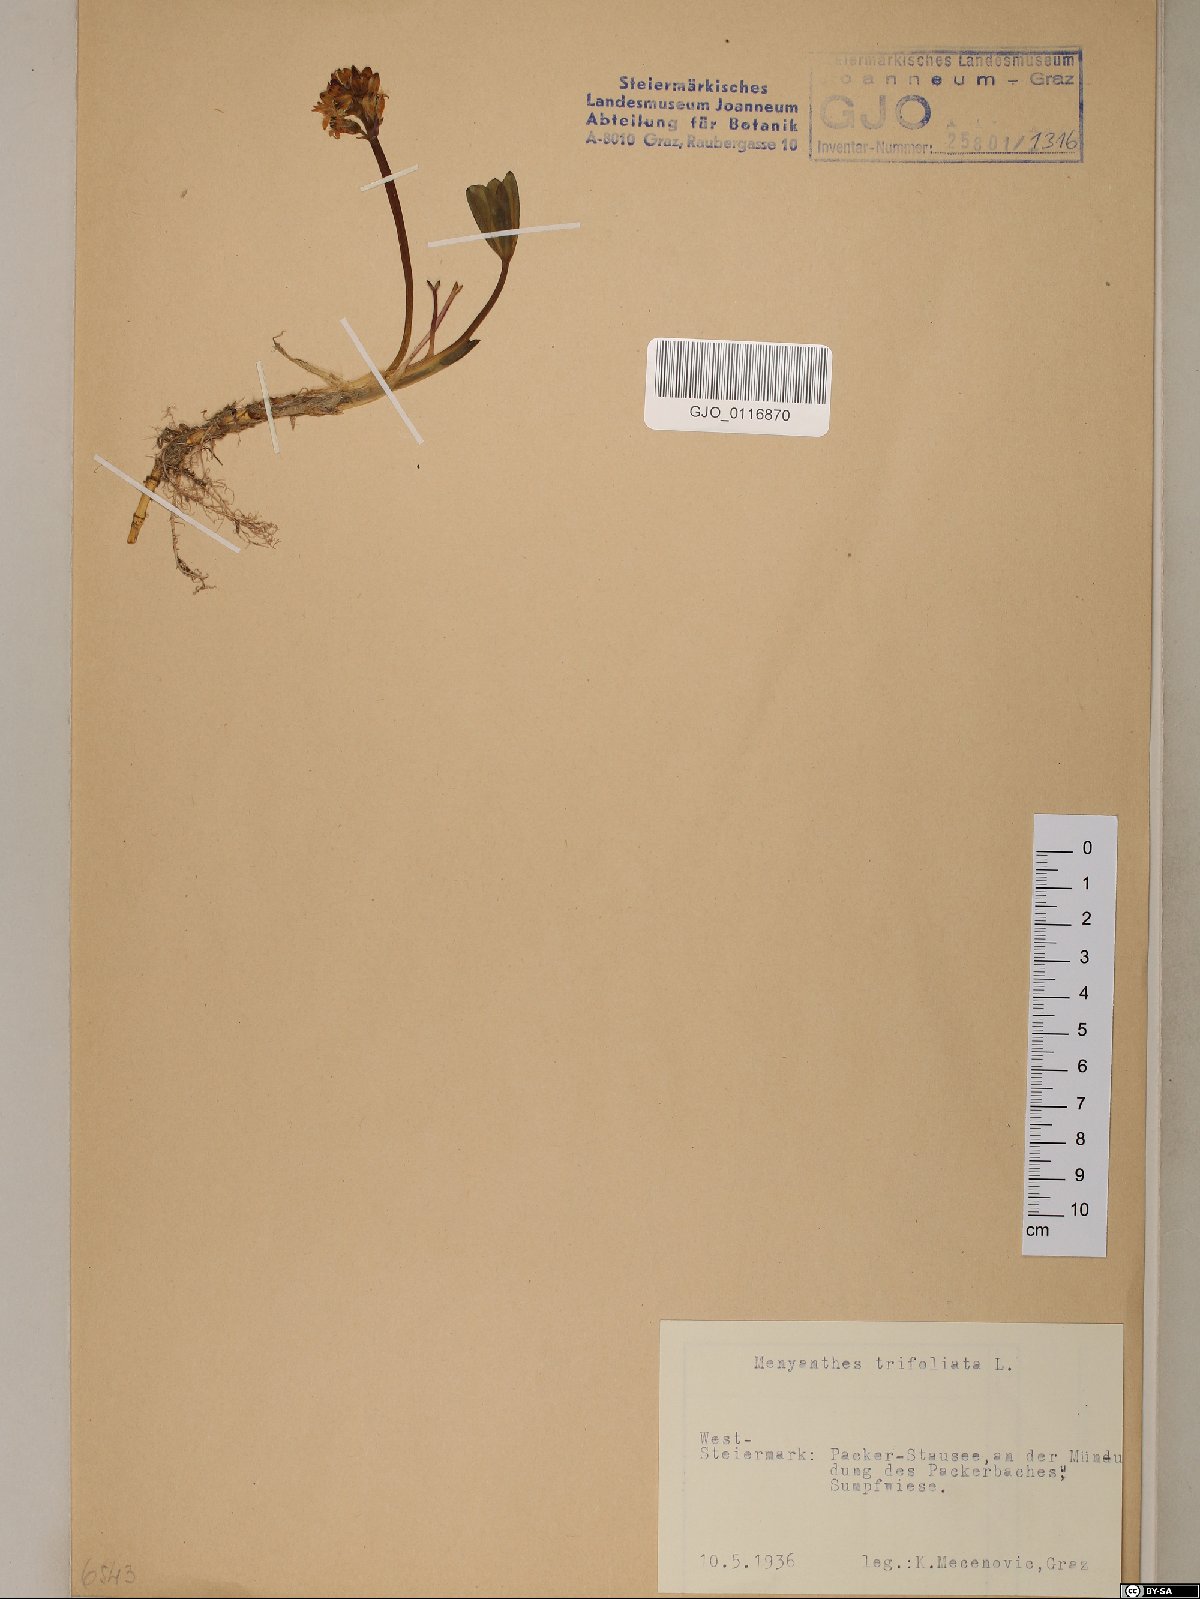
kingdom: Plantae
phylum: Tracheophyta
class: Magnoliopsida
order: Asterales
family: Menyanthaceae
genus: Menyanthes
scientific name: Menyanthes trifoliata
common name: Bogbean
